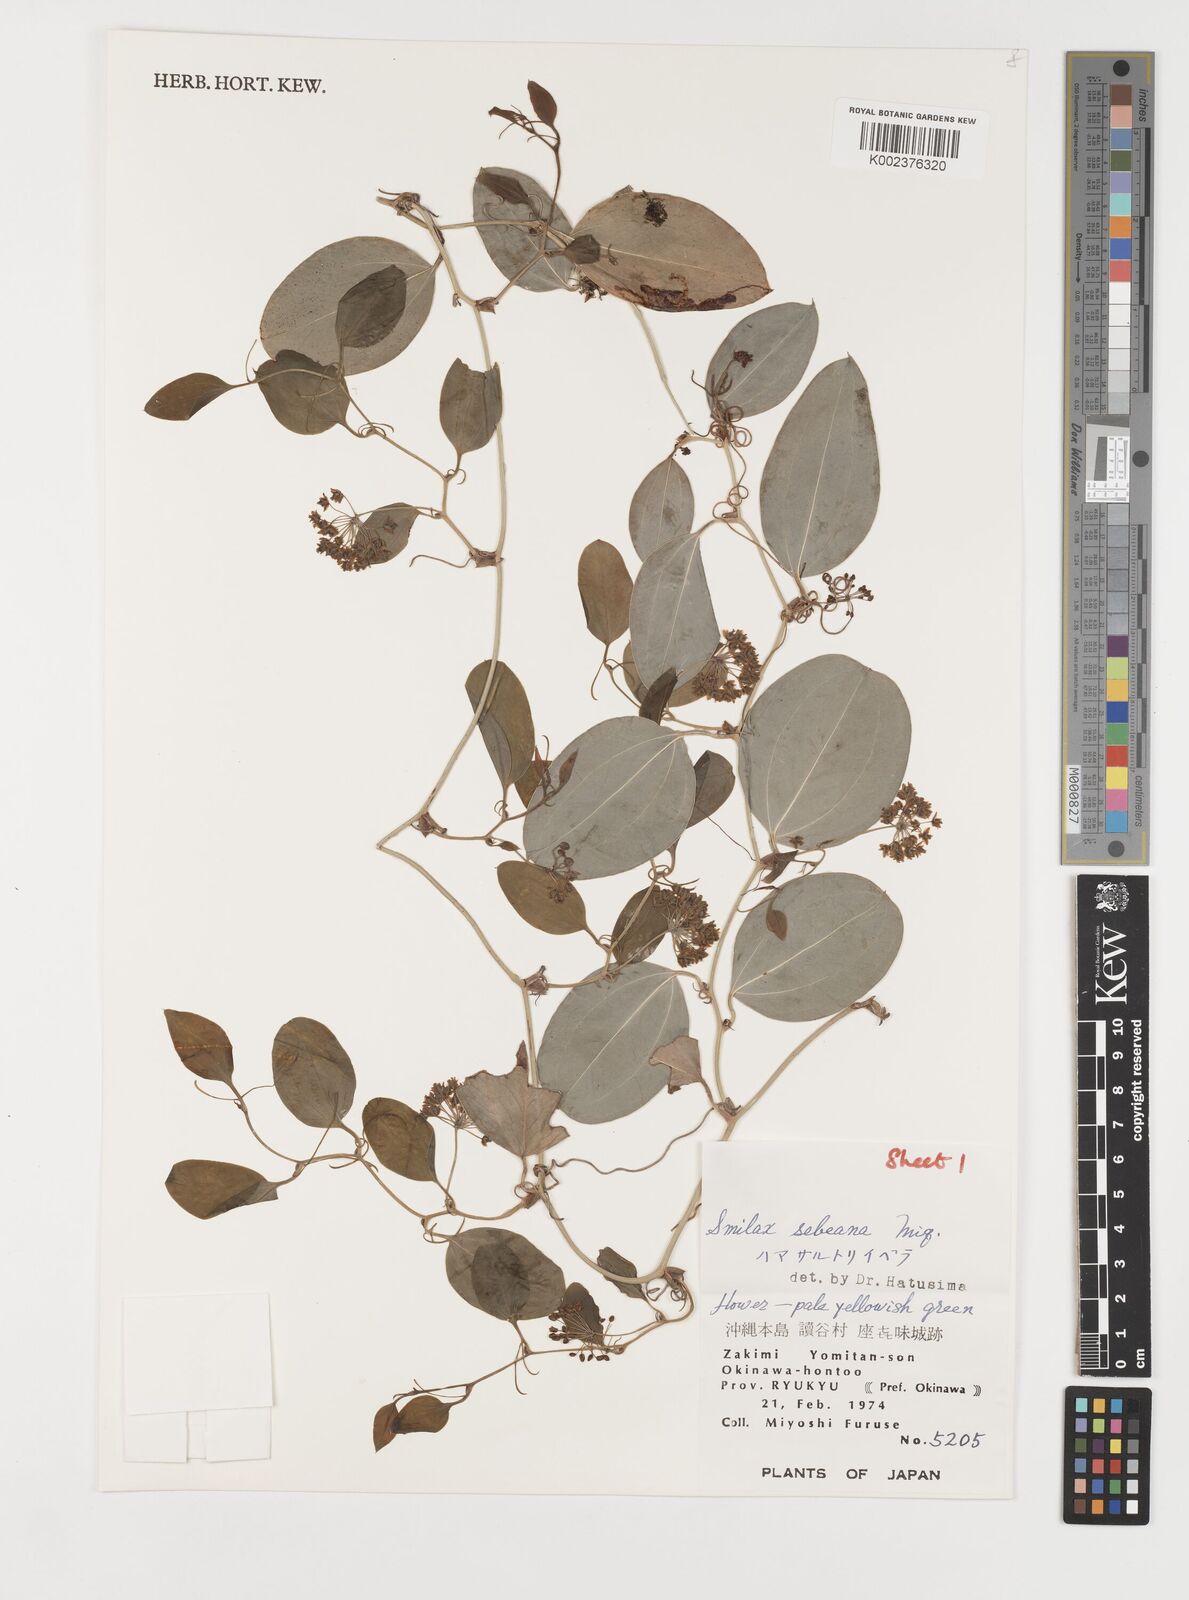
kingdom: Plantae
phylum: Tracheophyta
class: Liliopsida
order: Liliales
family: Smilacaceae
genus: Smilax
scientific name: Smilax sebeana
